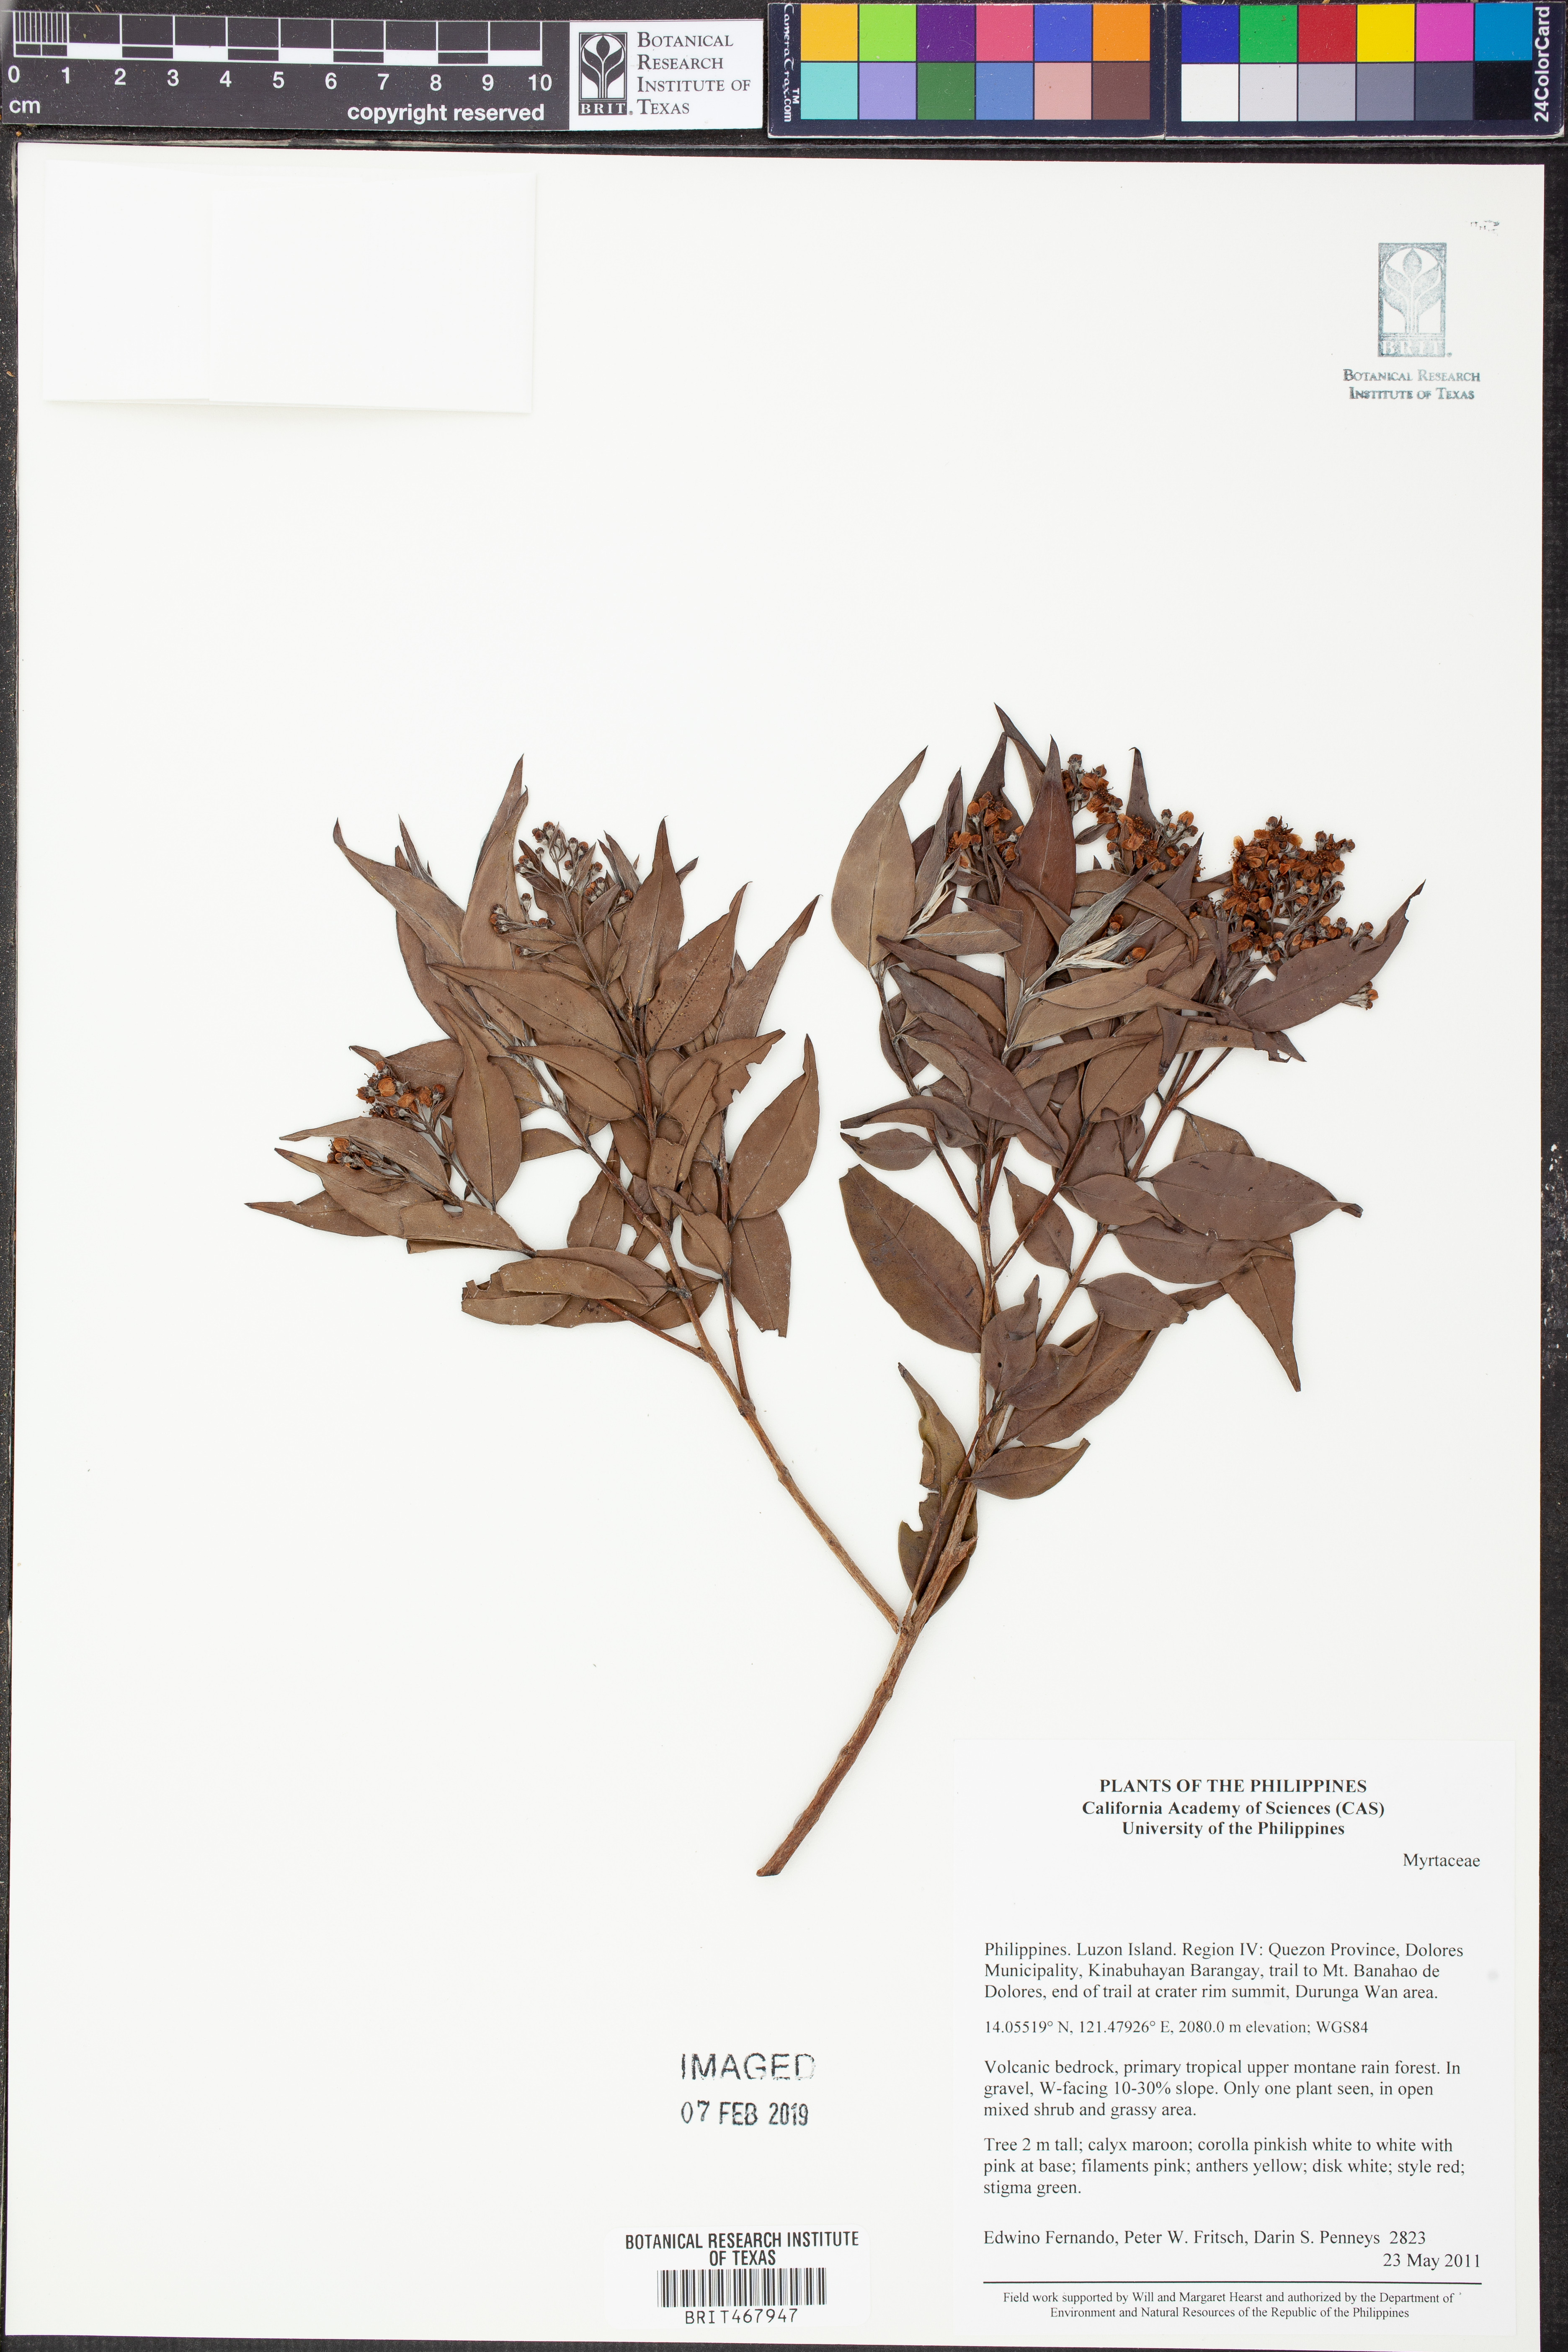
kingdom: Plantae
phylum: Tracheophyta
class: Magnoliopsida
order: Myrtales
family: Myrtaceae
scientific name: Myrtaceae
